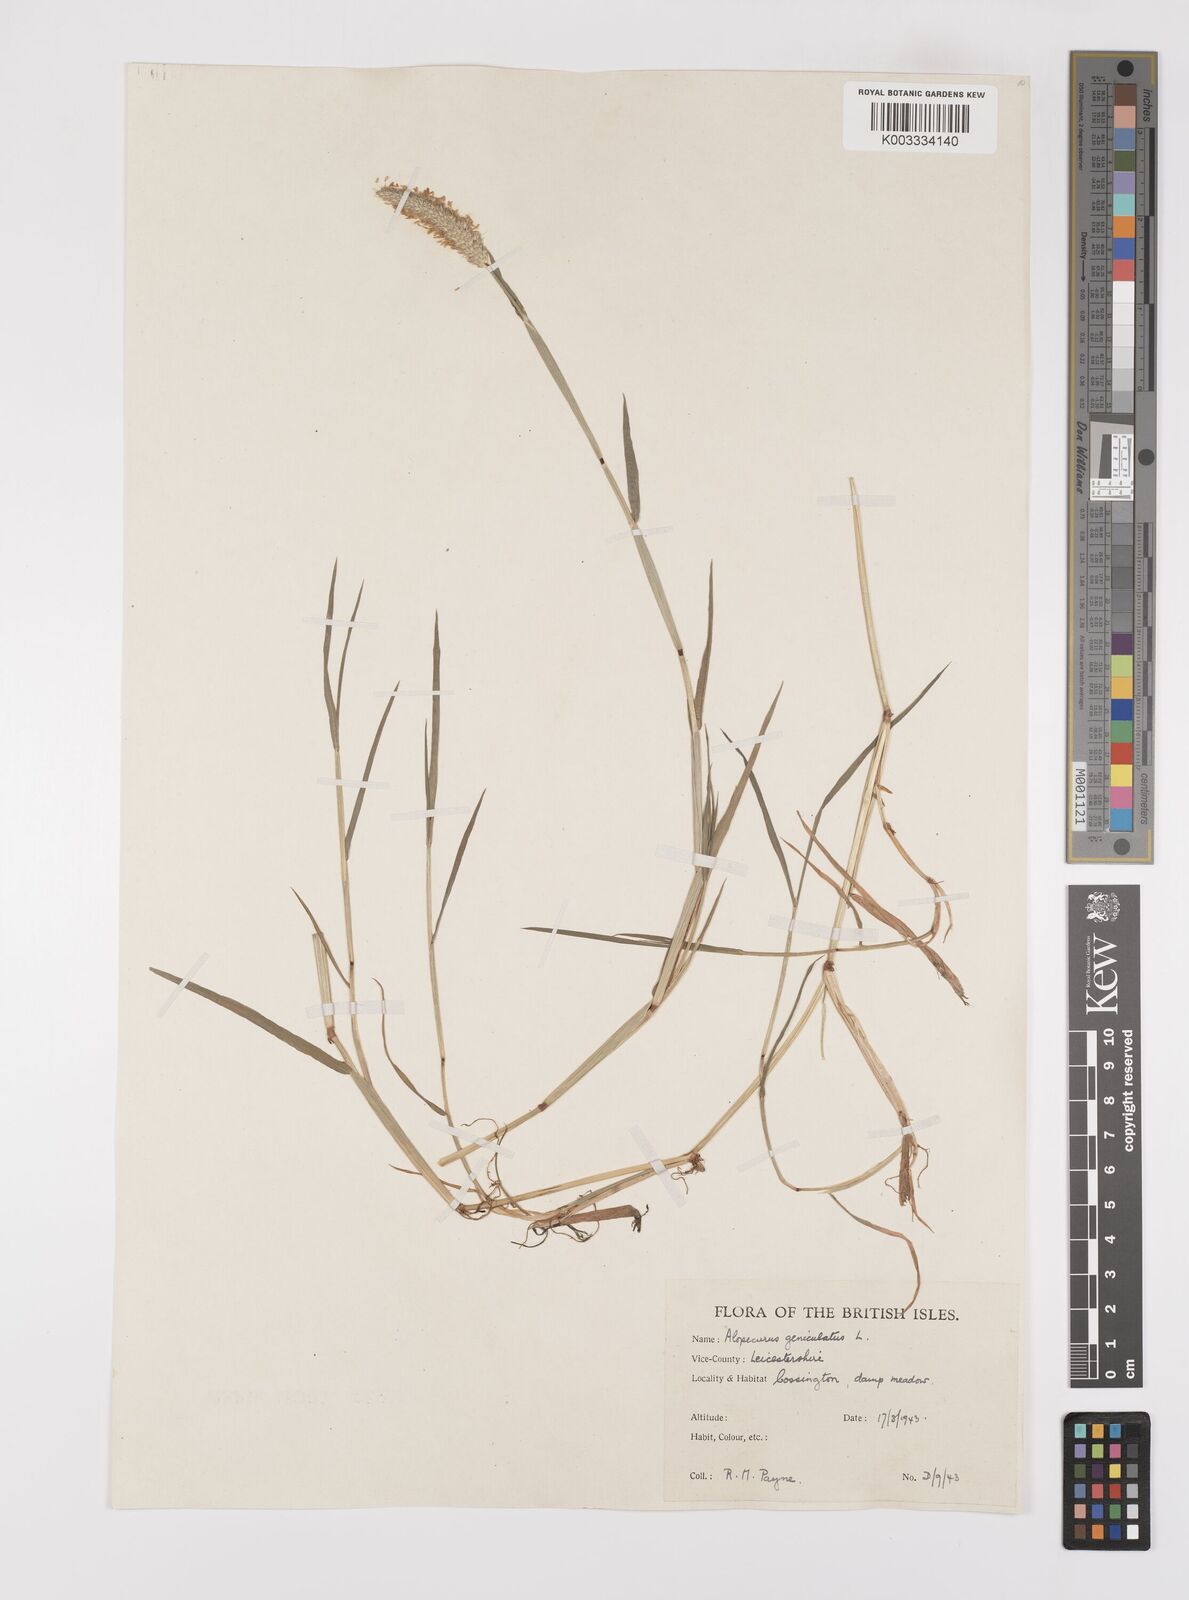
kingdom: Plantae
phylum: Tracheophyta
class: Liliopsida
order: Poales
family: Poaceae
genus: Alopecurus
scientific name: Alopecurus geniculatus
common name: Water foxtail
